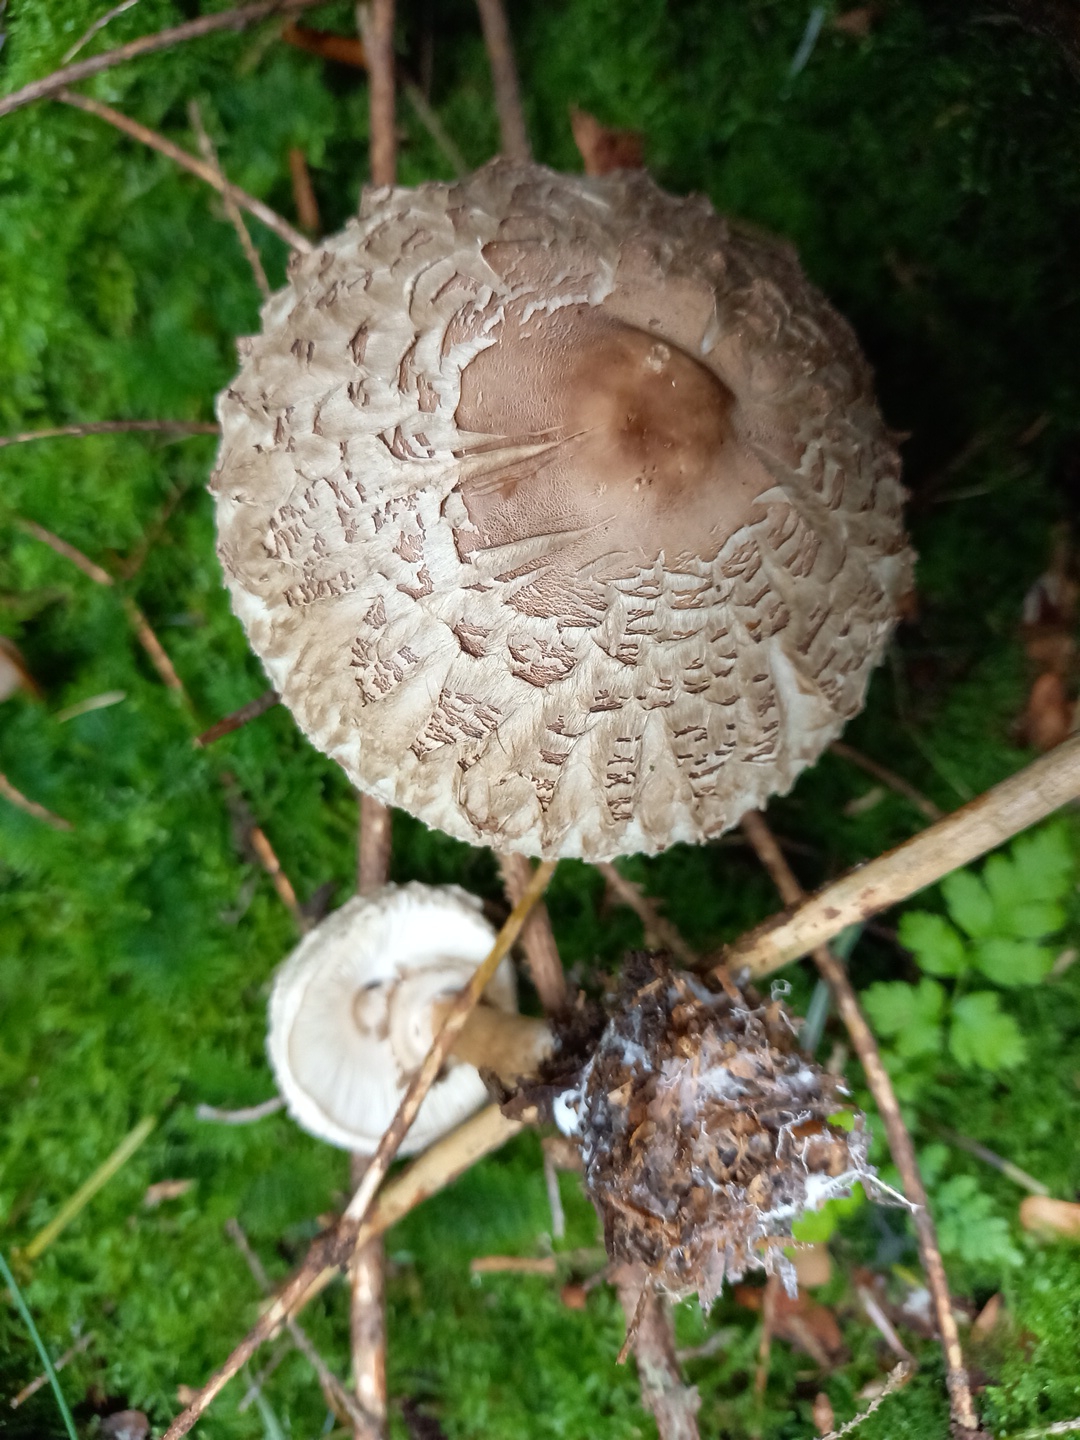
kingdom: Fungi
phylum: Basidiomycota
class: Agaricomycetes
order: Agaricales
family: Agaricaceae
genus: Chlorophyllum
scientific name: Chlorophyllum olivieri
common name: almindelig rabarberhat
